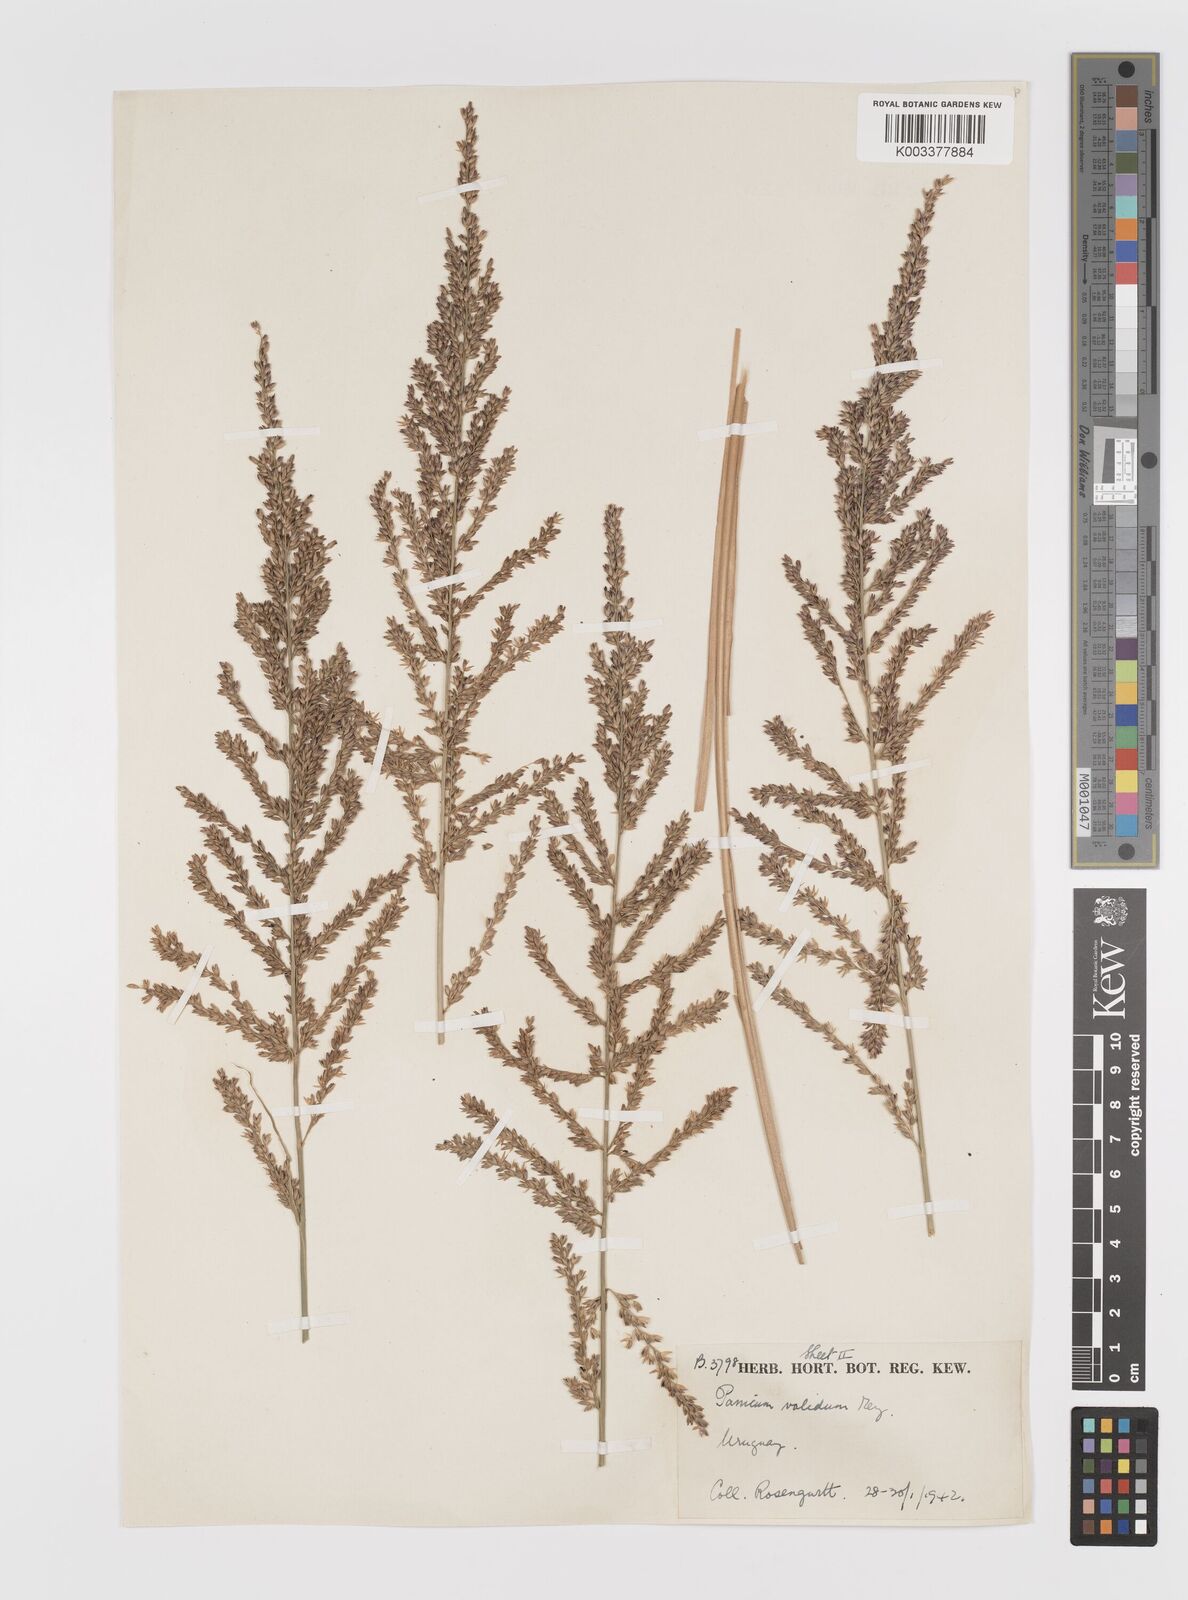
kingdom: Plantae
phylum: Tracheophyta
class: Liliopsida
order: Poales
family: Poaceae
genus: Osvaldoa
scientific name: Osvaldoa valida
